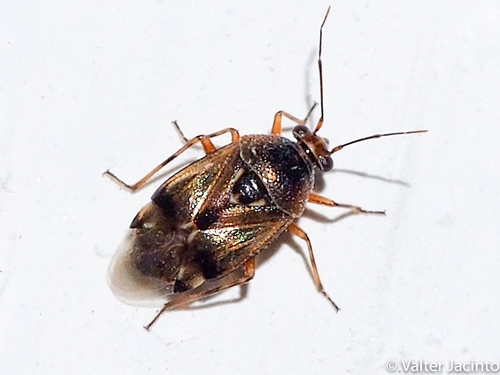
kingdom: Animalia
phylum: Arthropoda
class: Insecta
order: Hemiptera
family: Miridae
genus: Deraeocoris
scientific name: Deraeocoris serenus
